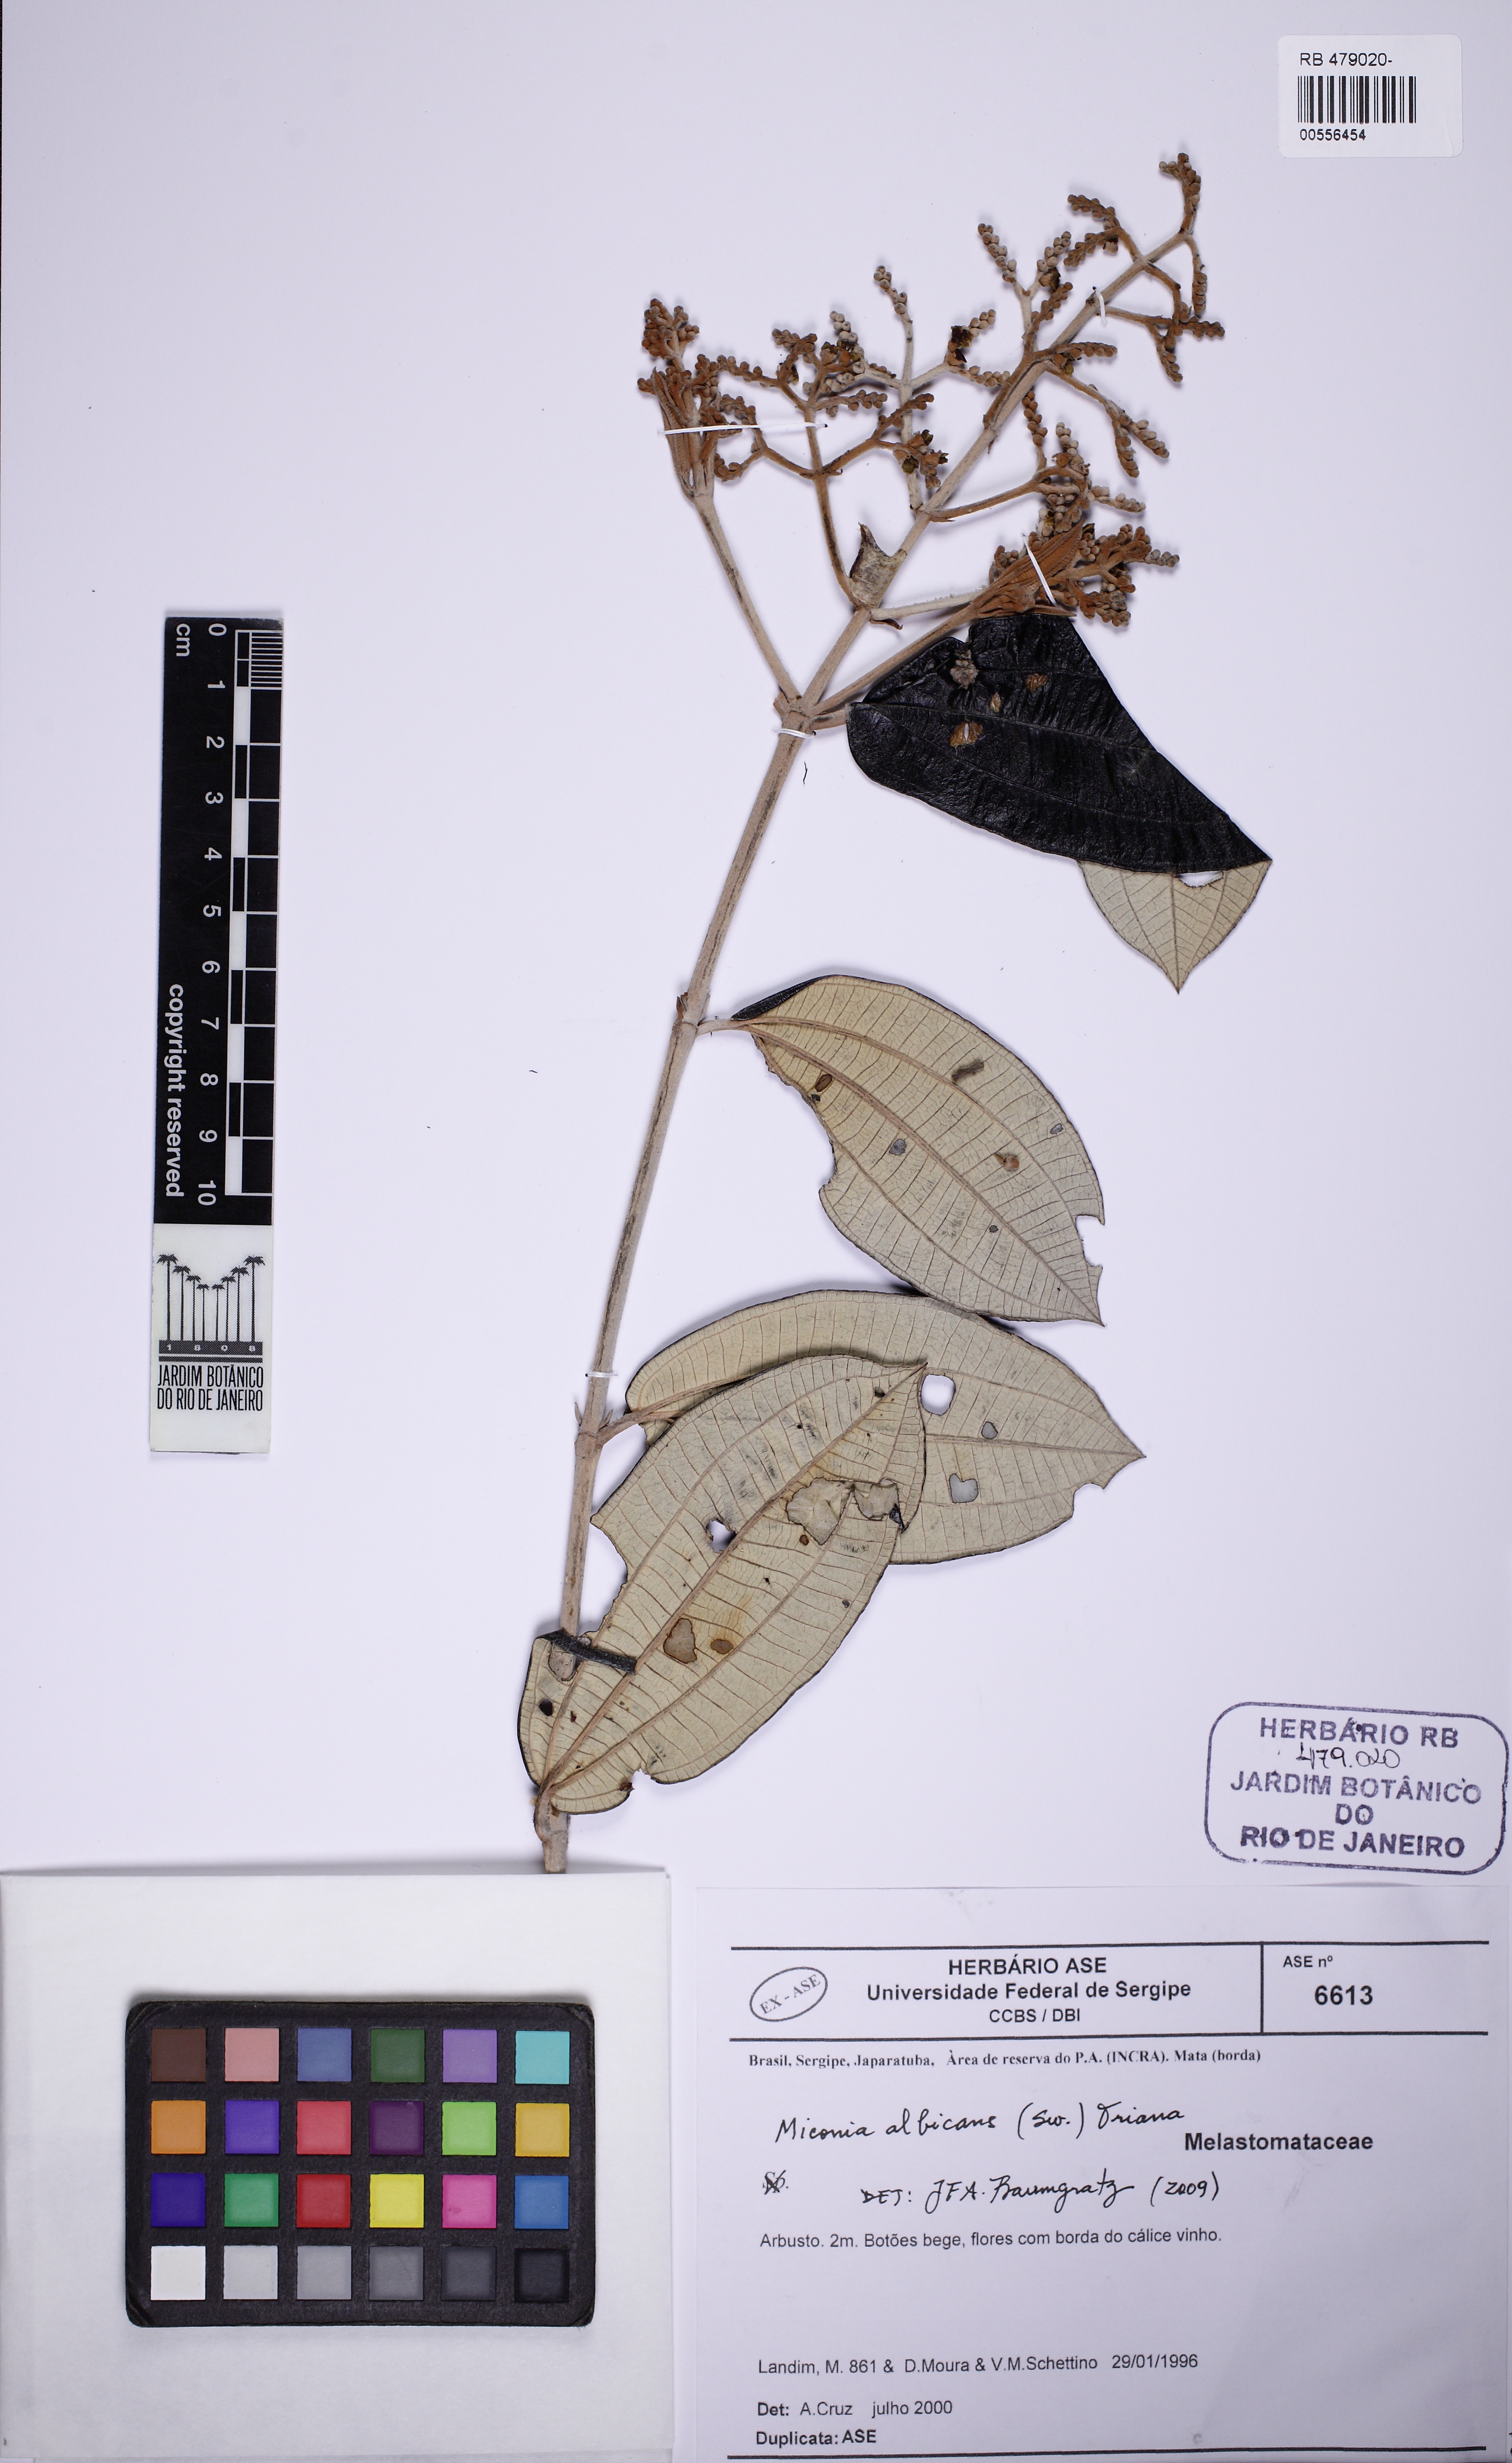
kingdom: Plantae
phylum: Tracheophyta
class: Magnoliopsida
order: Myrtales
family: Melastomataceae
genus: Miconia
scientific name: Miconia albicans
